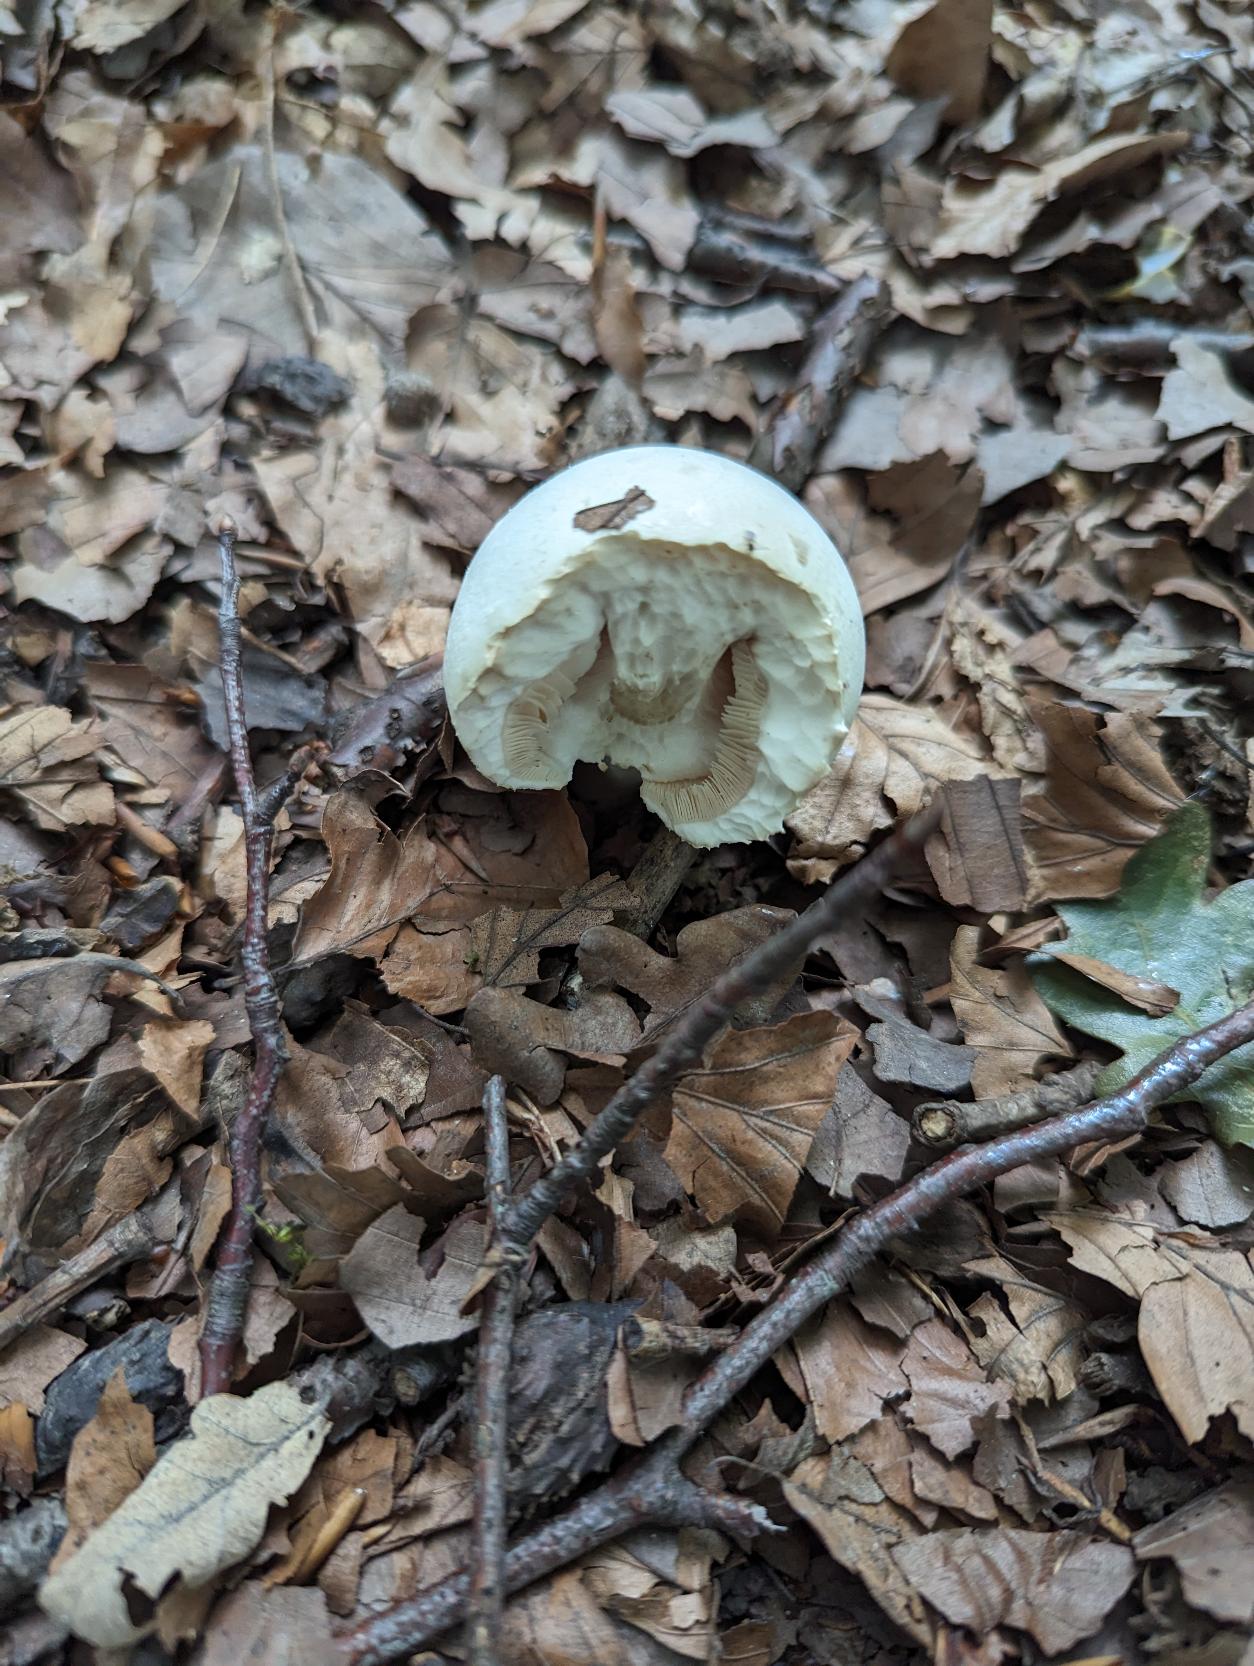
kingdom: Fungi
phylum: Basidiomycota
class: Agaricomycetes
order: Agaricales
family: Agaricaceae
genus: Agaricus
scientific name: Agaricus xanthodermus
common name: Karbol-champignon
